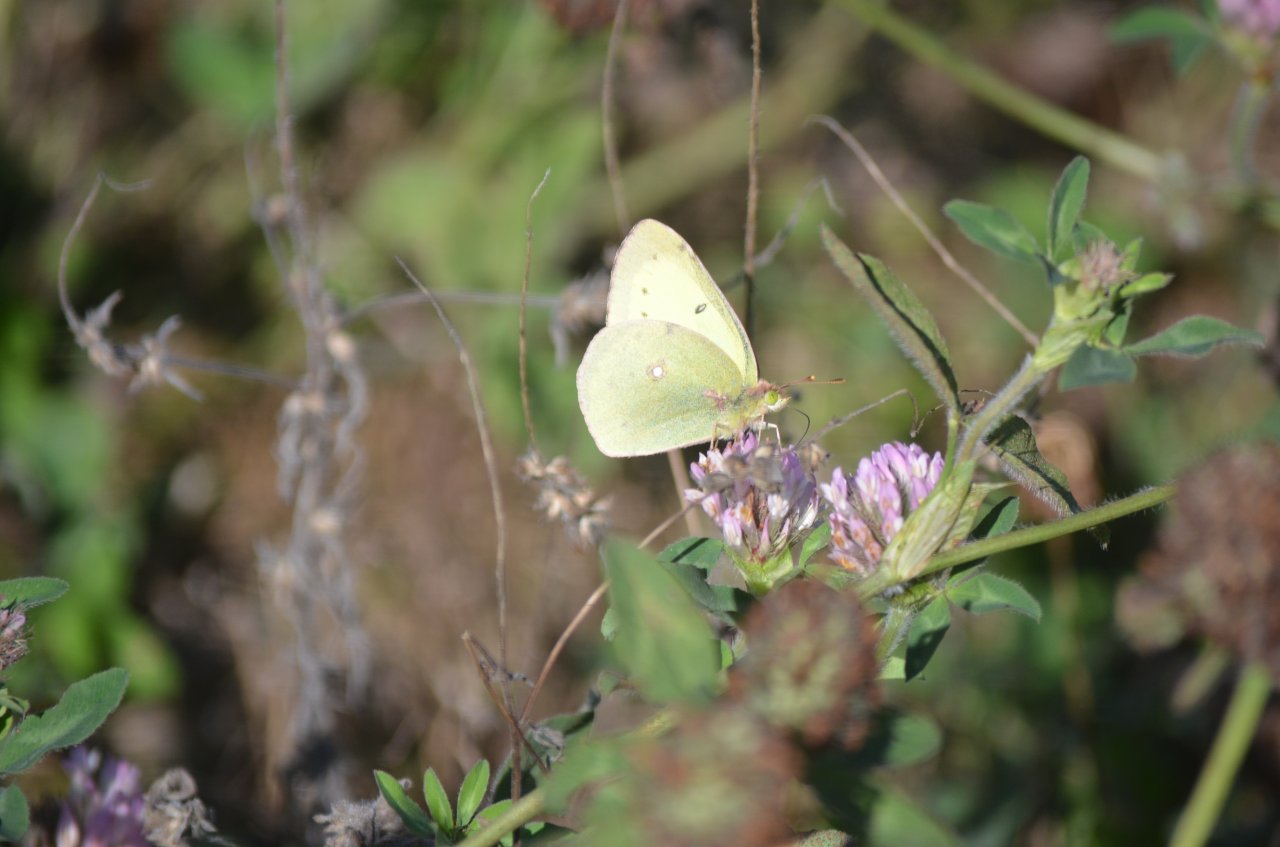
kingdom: Animalia
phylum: Arthropoda
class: Insecta
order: Lepidoptera
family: Pieridae
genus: Colias
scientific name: Colias philodice
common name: Clouded Sulphur
